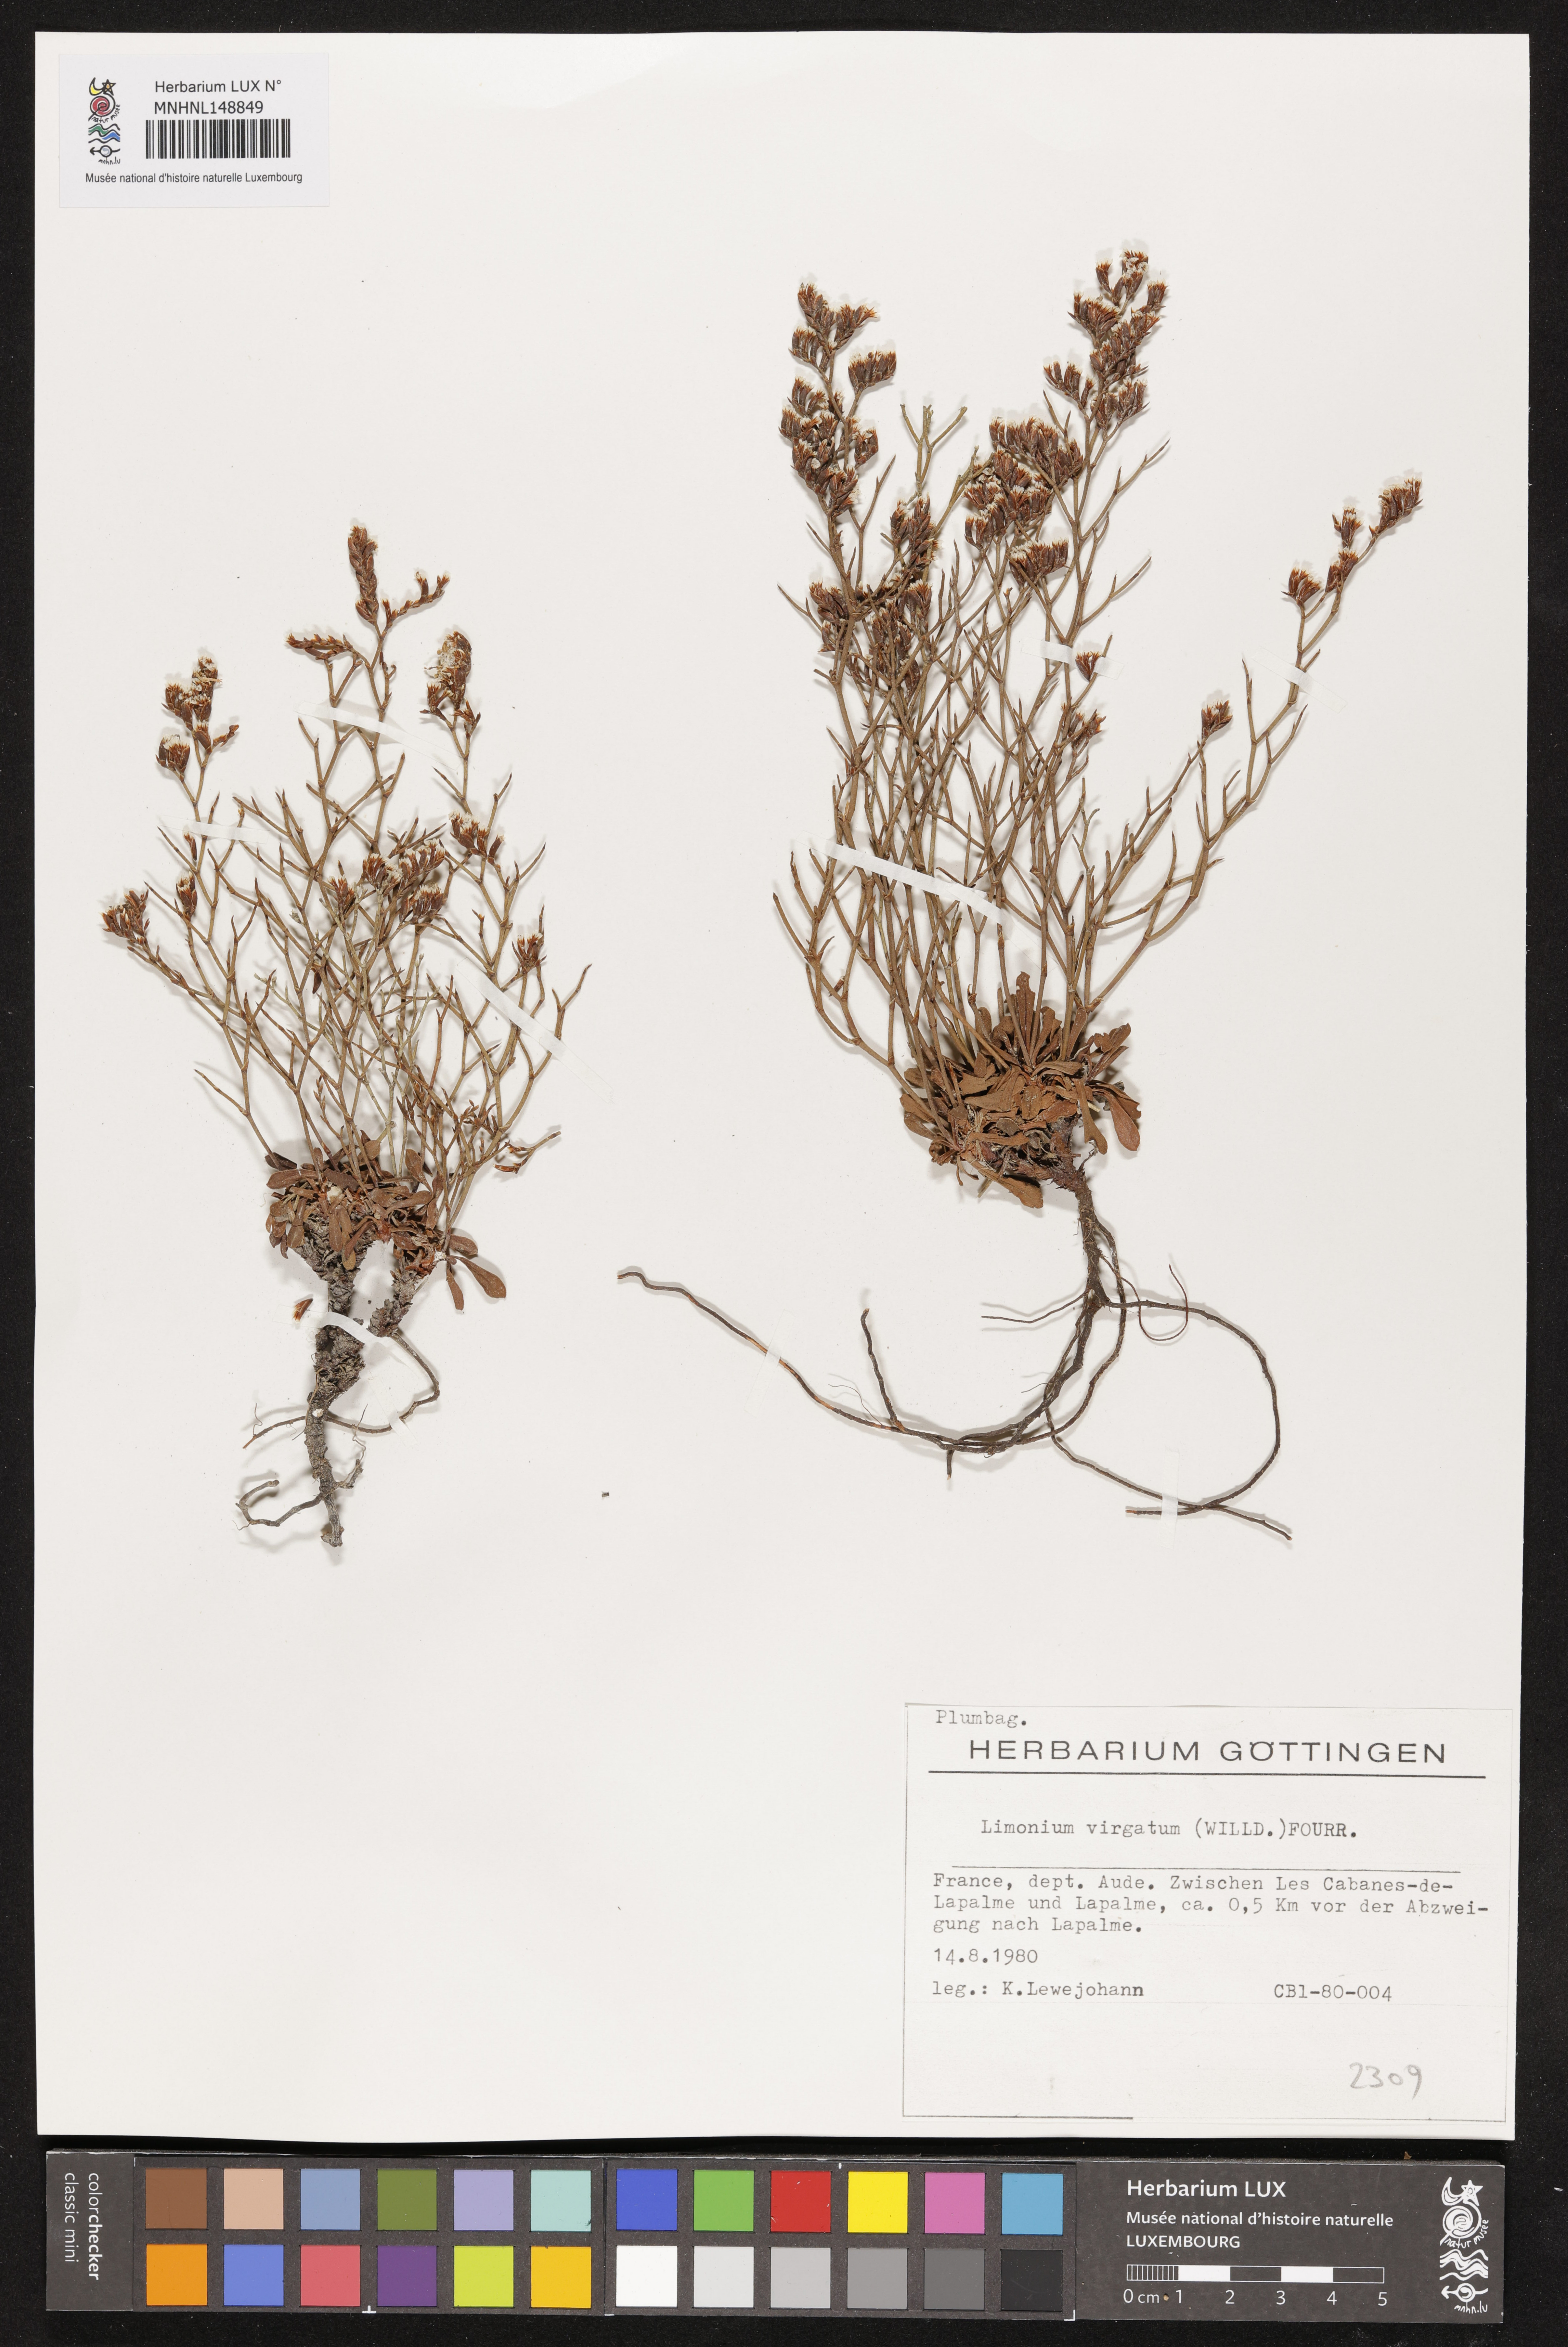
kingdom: Plantae
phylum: Tracheophyta
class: Magnoliopsida
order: Caryophyllales
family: Plumbaginaceae
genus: Limonium
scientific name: Limonium virgatum
